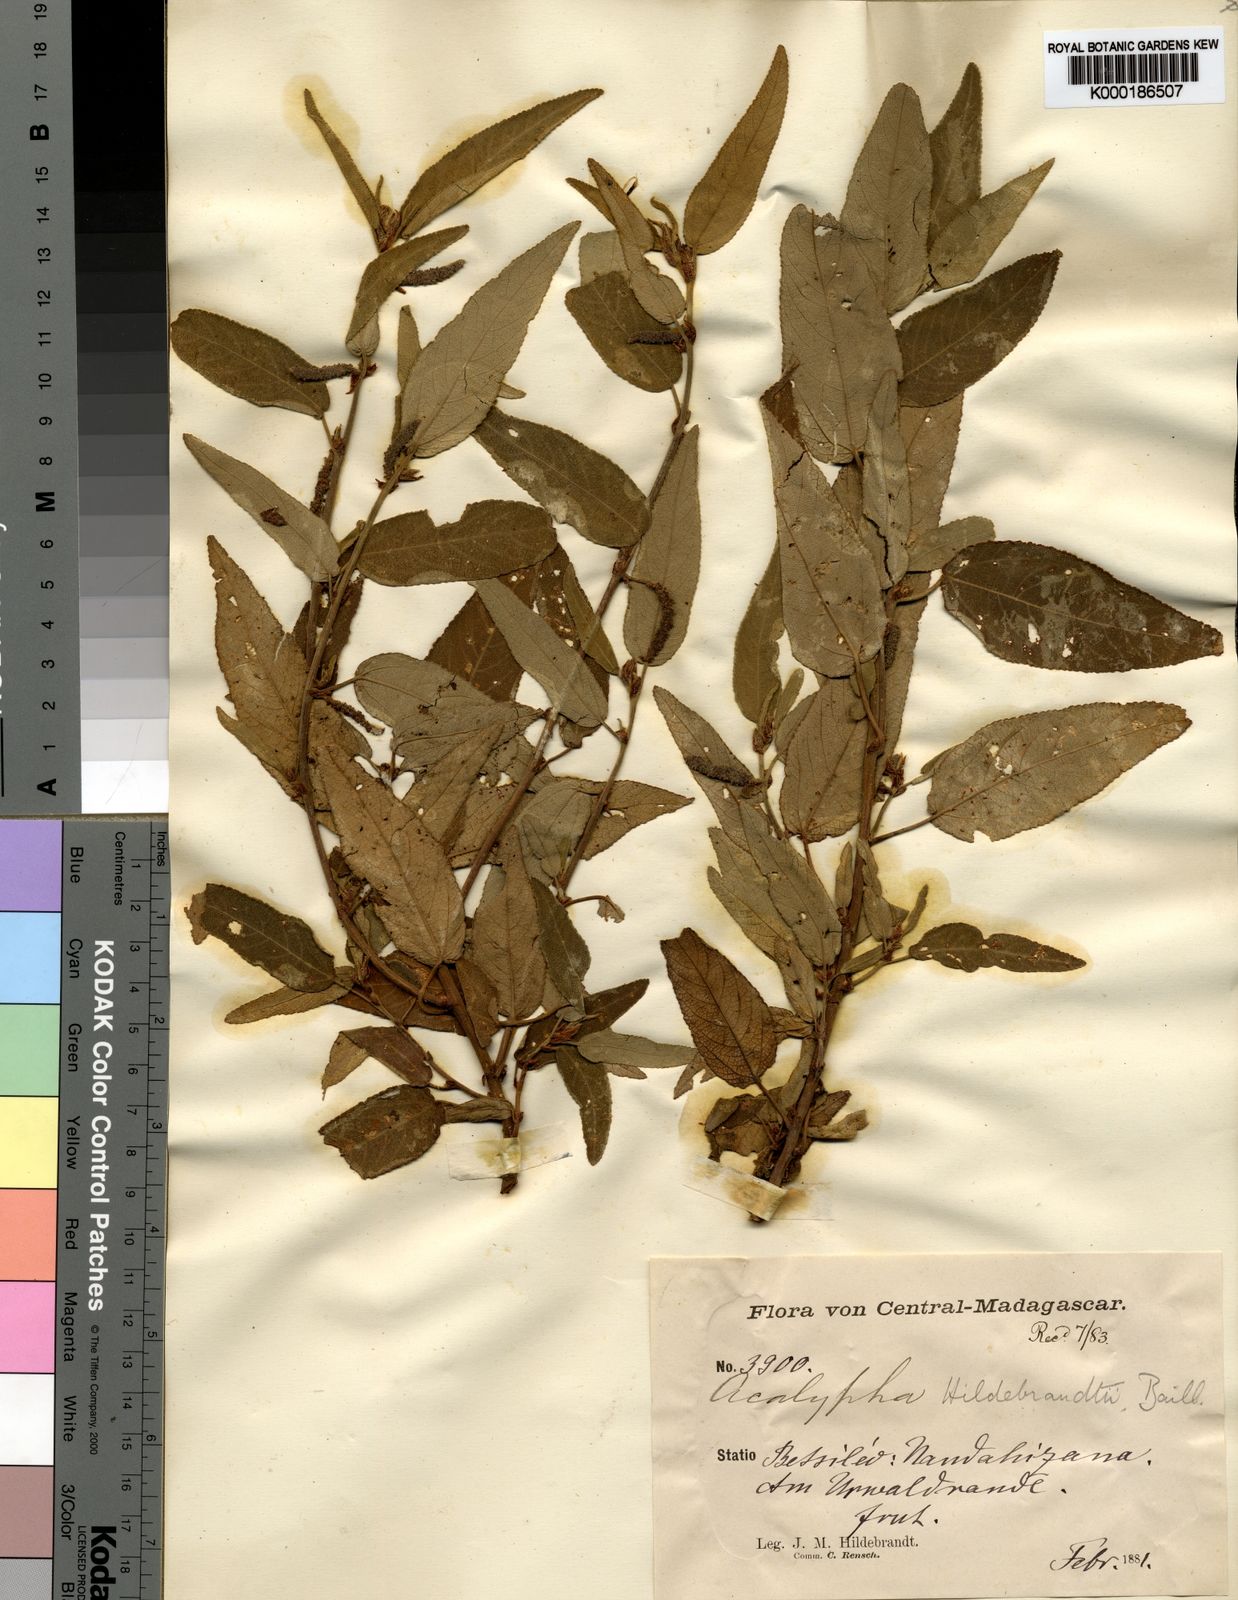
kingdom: Plantae
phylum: Tracheophyta
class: Magnoliopsida
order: Malpighiales
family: Euphorbiaceae
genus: Acalypha
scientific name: Acalypha radula
